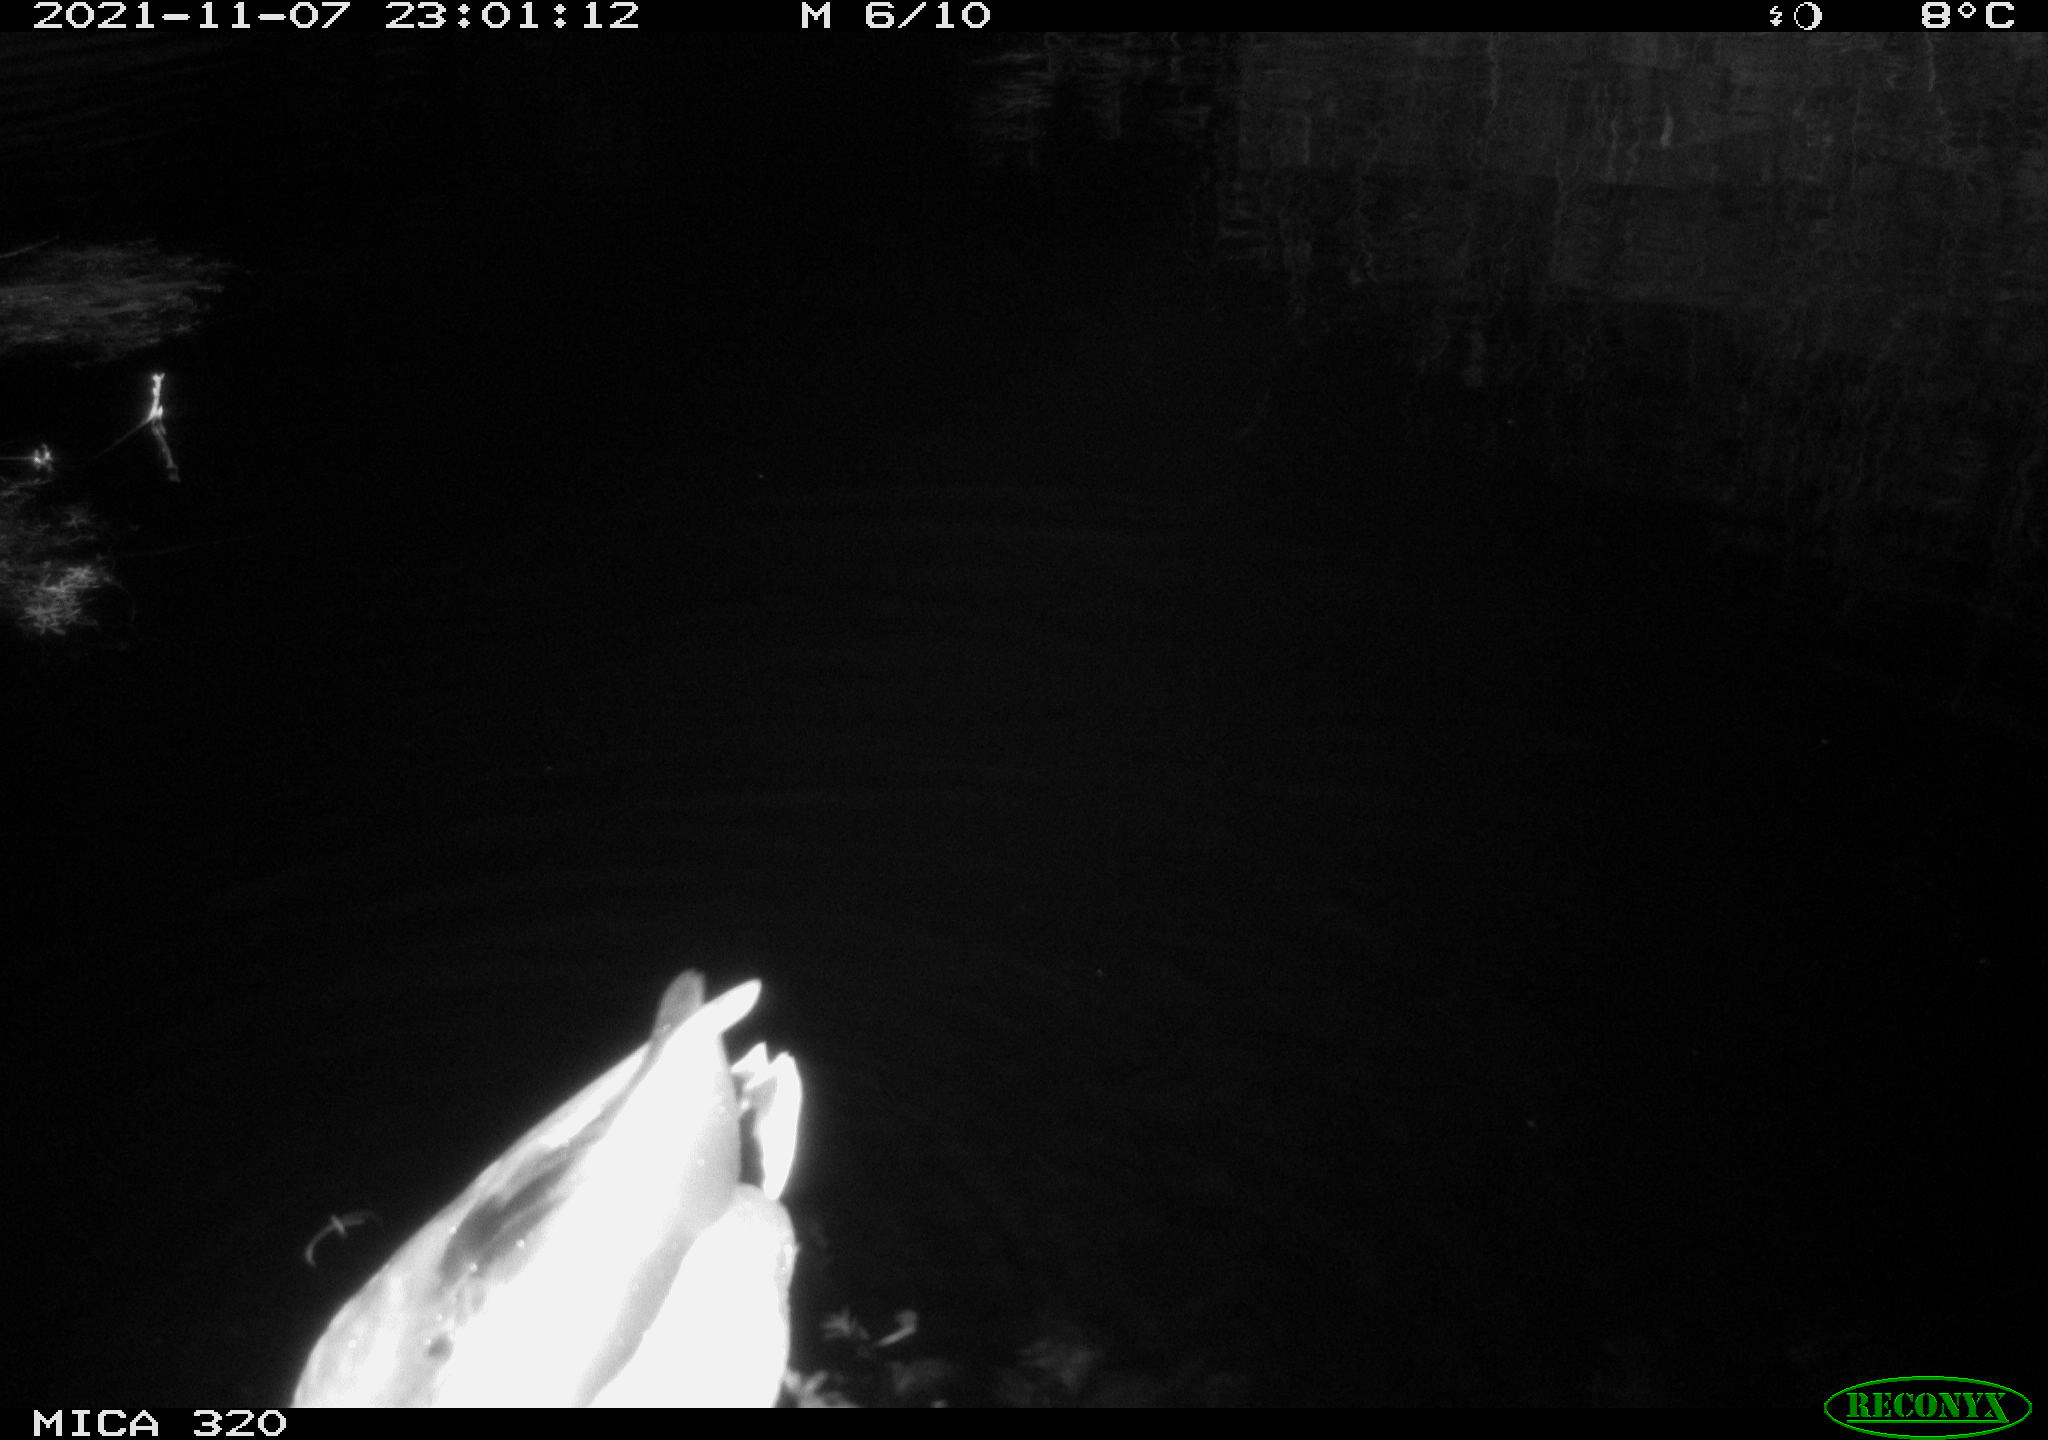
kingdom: Animalia
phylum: Chordata
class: Aves
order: Anseriformes
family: Anatidae
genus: Anas
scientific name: Anas platyrhynchos
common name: Mallard
